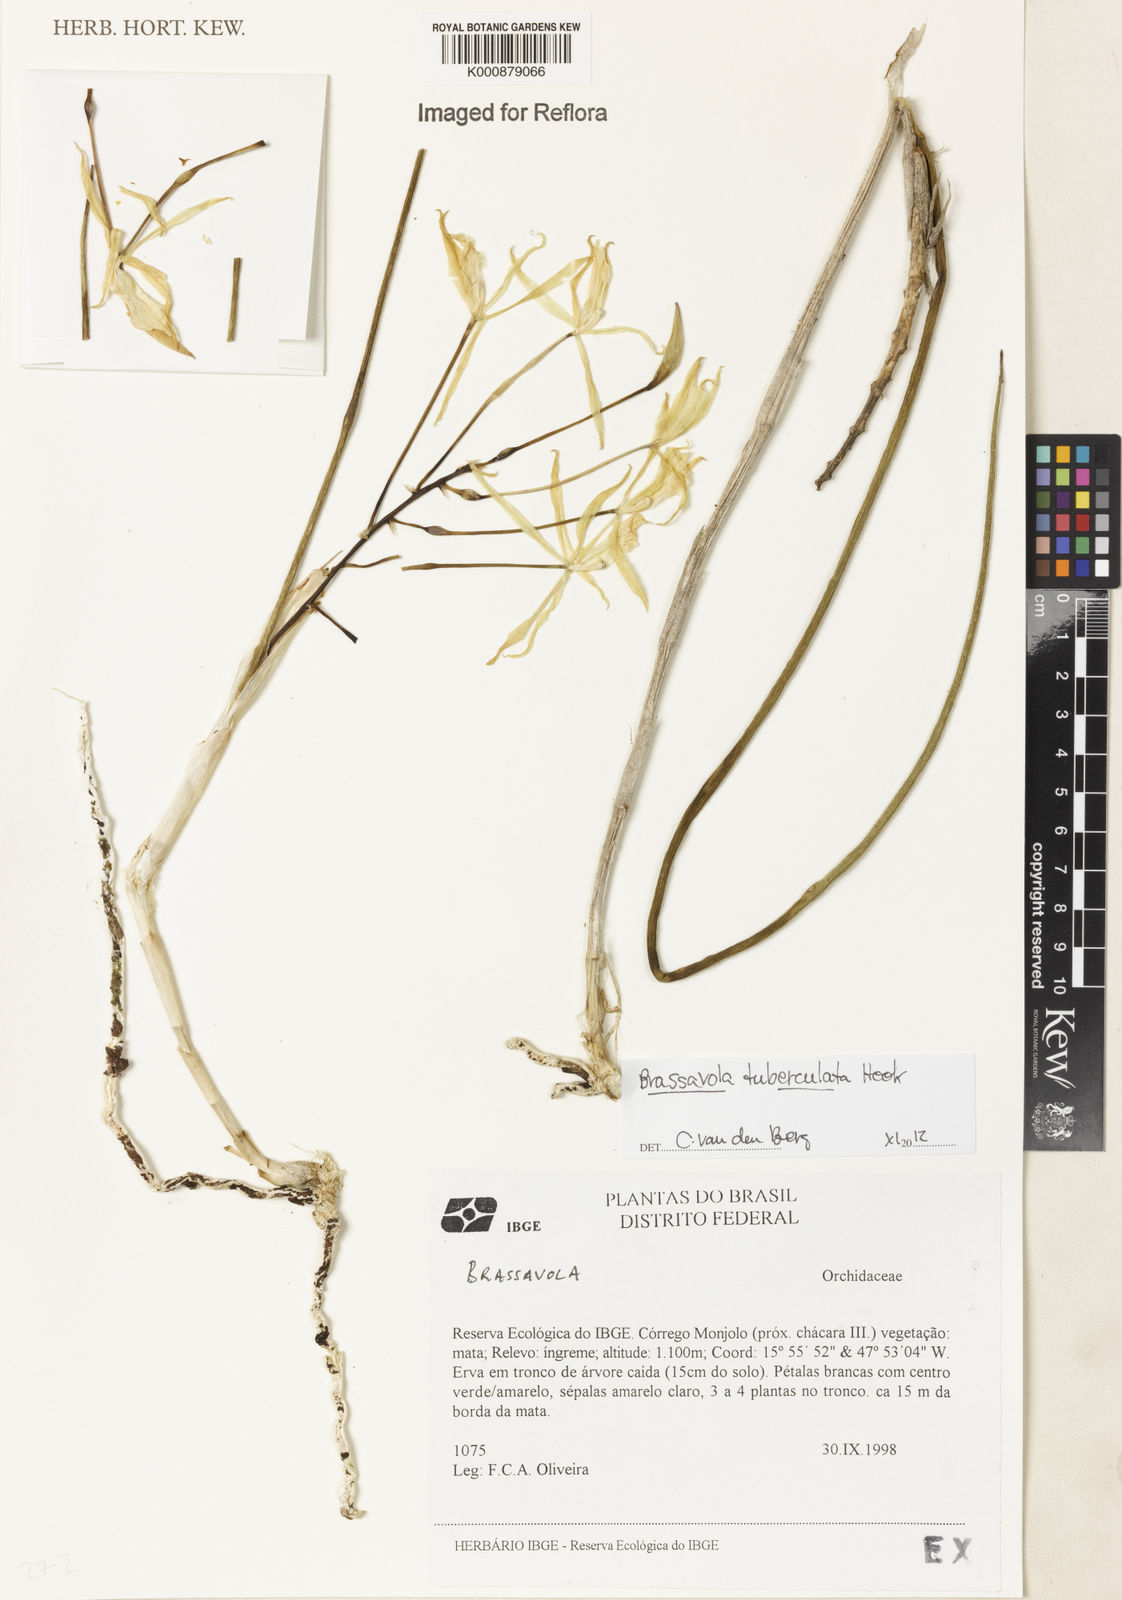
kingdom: Plantae
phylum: Tracheophyta
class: Liliopsida
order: Asparagales
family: Orchidaceae
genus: Brassavola
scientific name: Brassavola tuberculata
